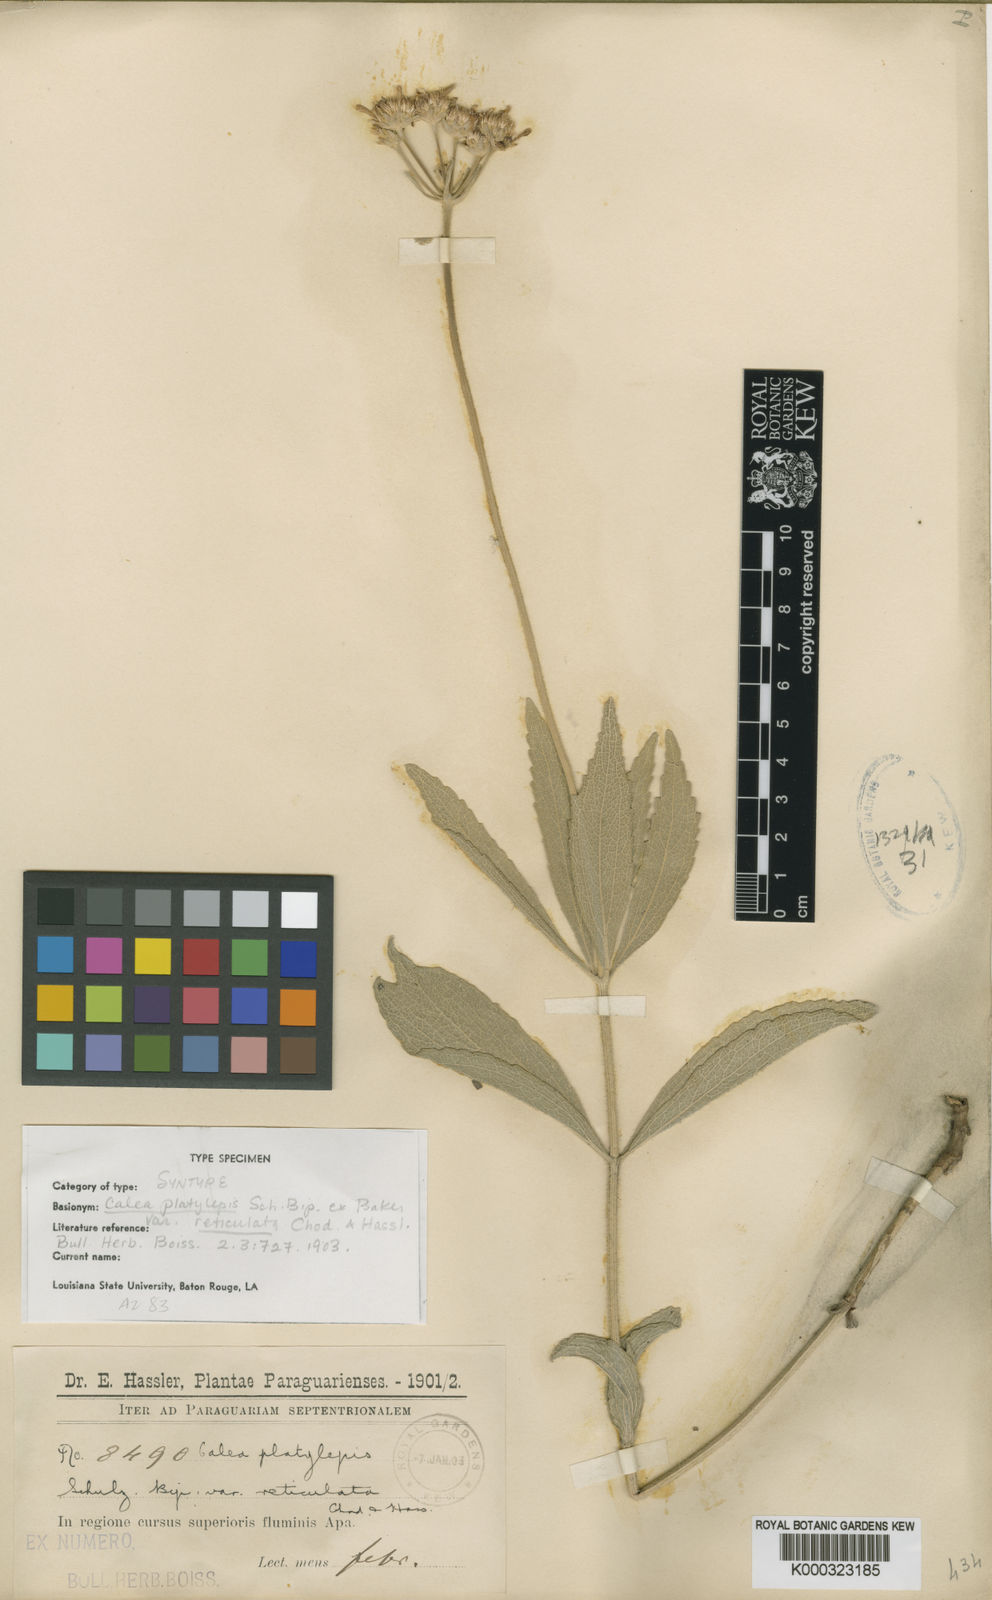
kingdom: Plantae
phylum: Tracheophyta
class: Magnoliopsida
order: Asterales
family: Asteraceae
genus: Calea
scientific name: Calea mediterranea
